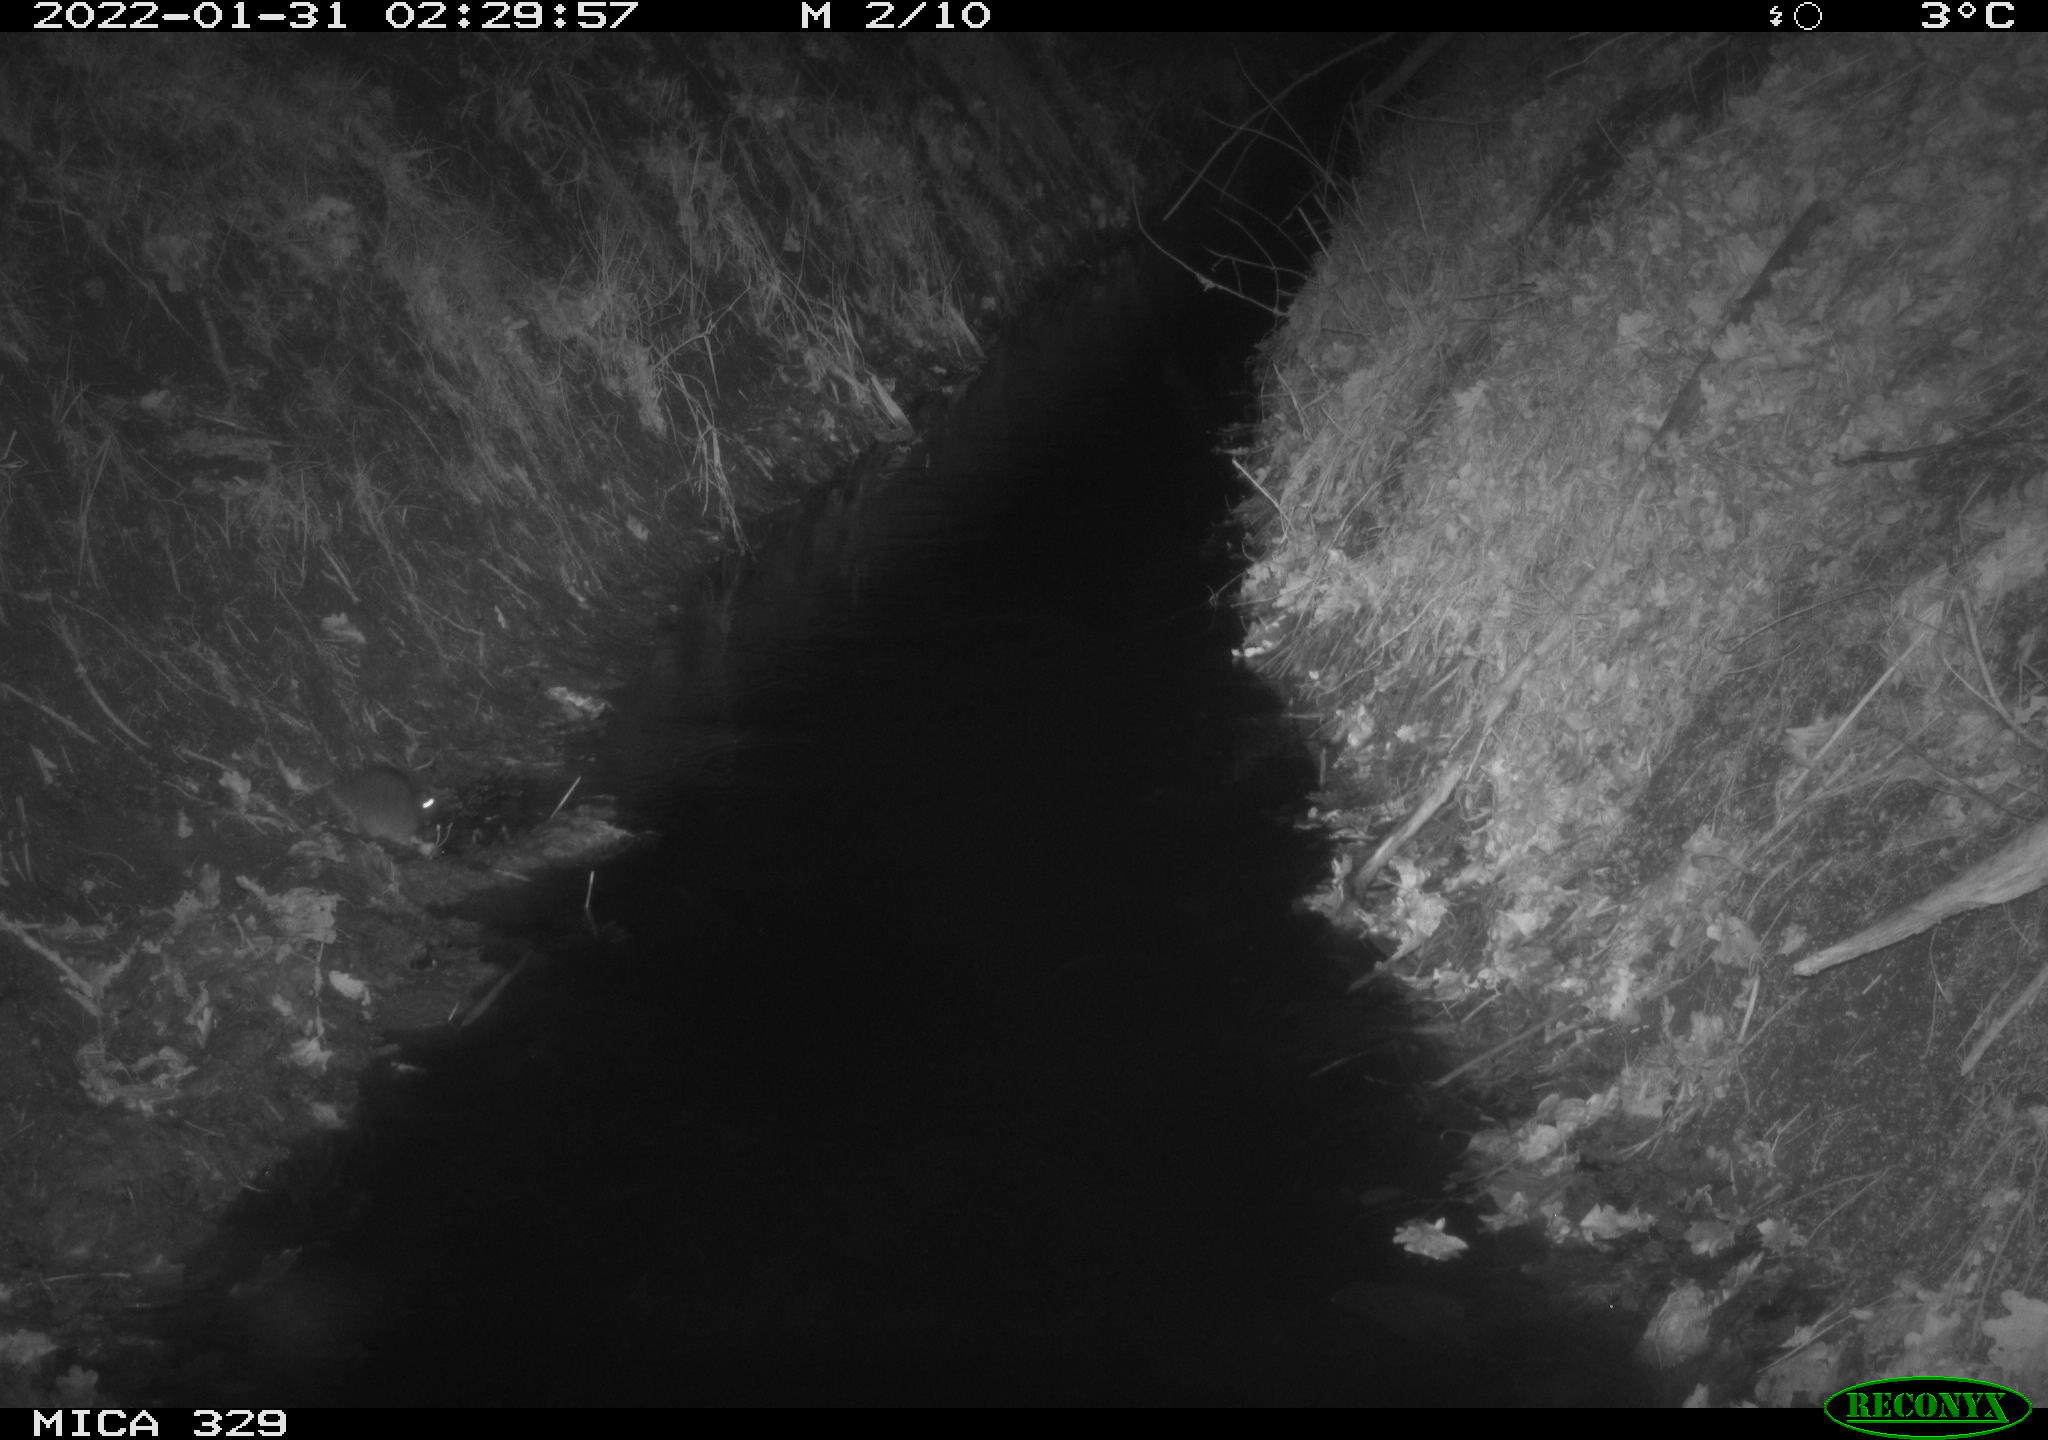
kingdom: Animalia
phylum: Chordata
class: Mammalia
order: Rodentia
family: Muridae
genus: Rattus
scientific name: Rattus norvegicus
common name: Brown rat
